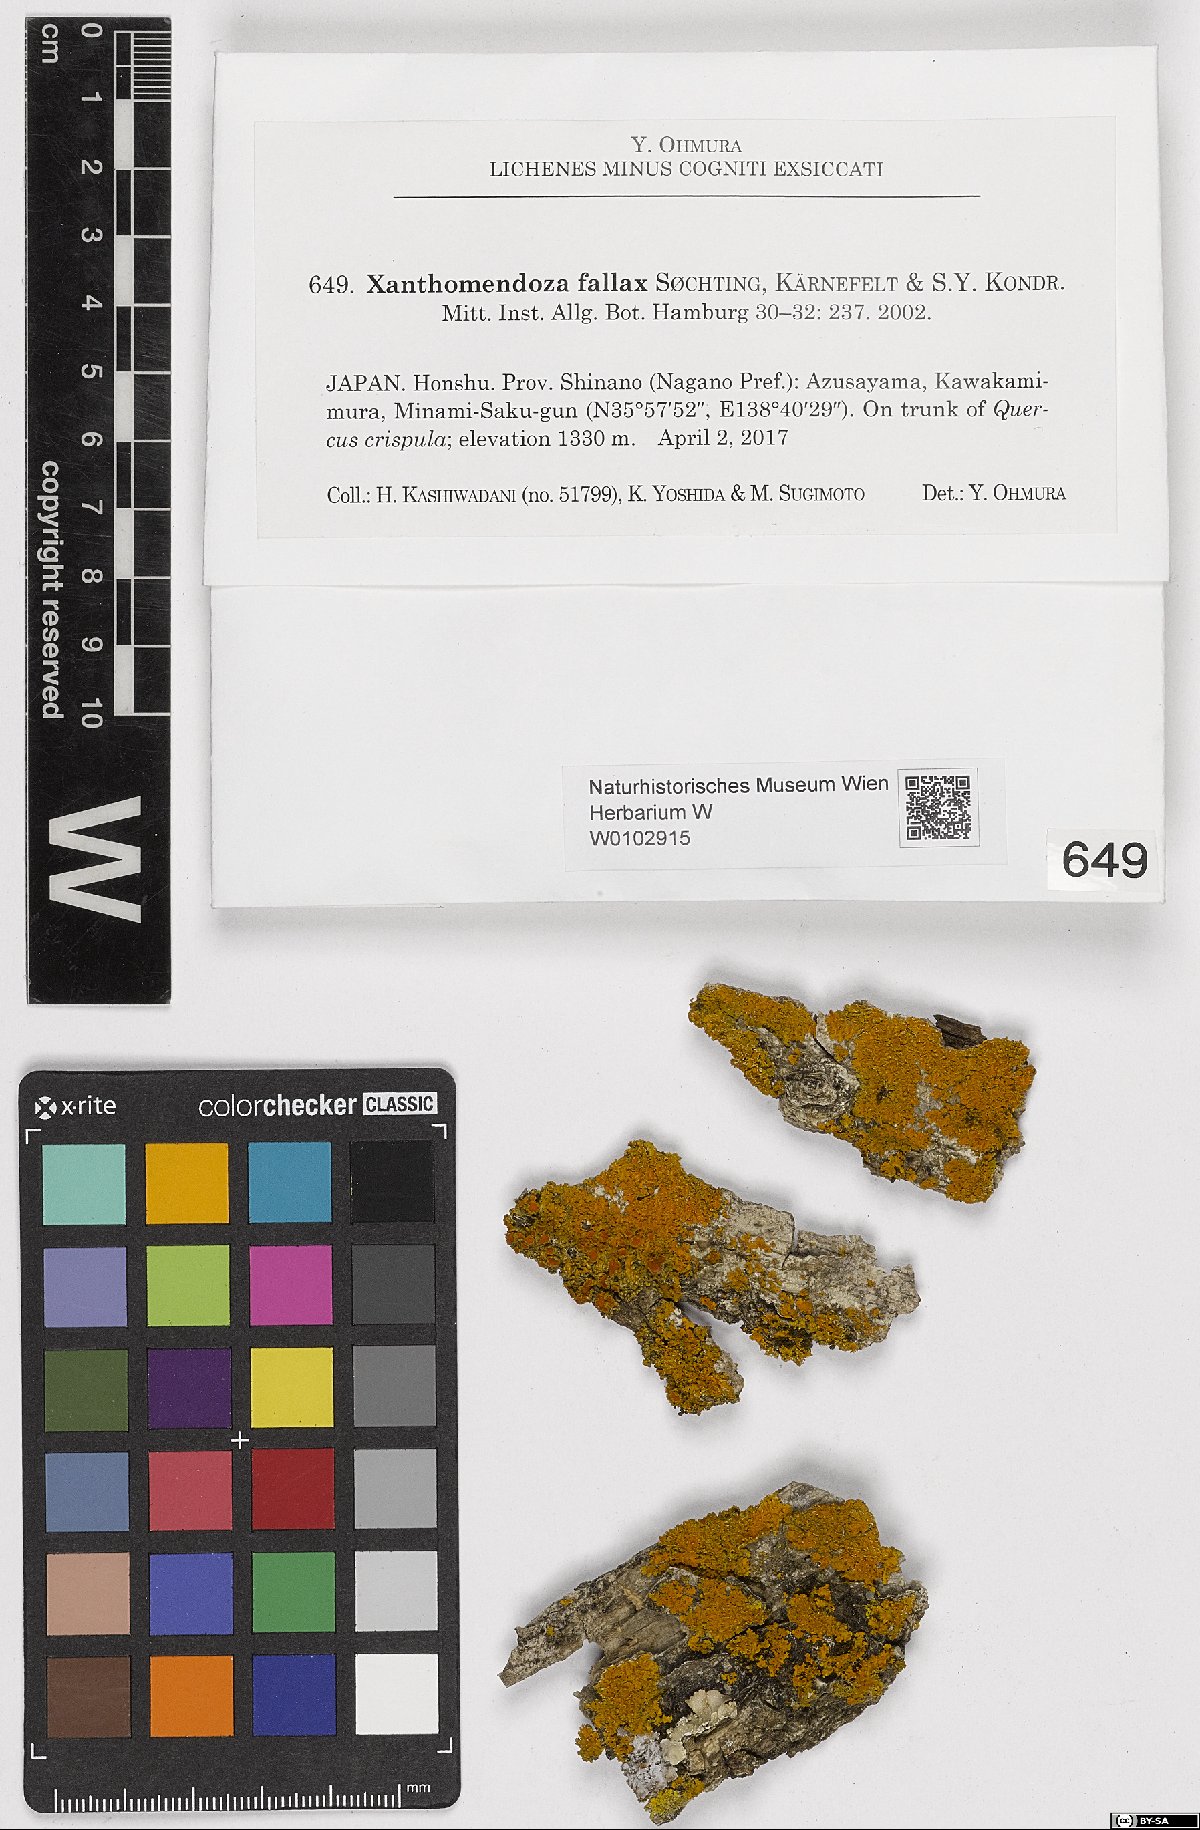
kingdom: Fungi
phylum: Ascomycota
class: Lecanoromycetes
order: Teloschistales
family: Teloschistaceae
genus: Oxneria
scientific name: Oxneria fallax
